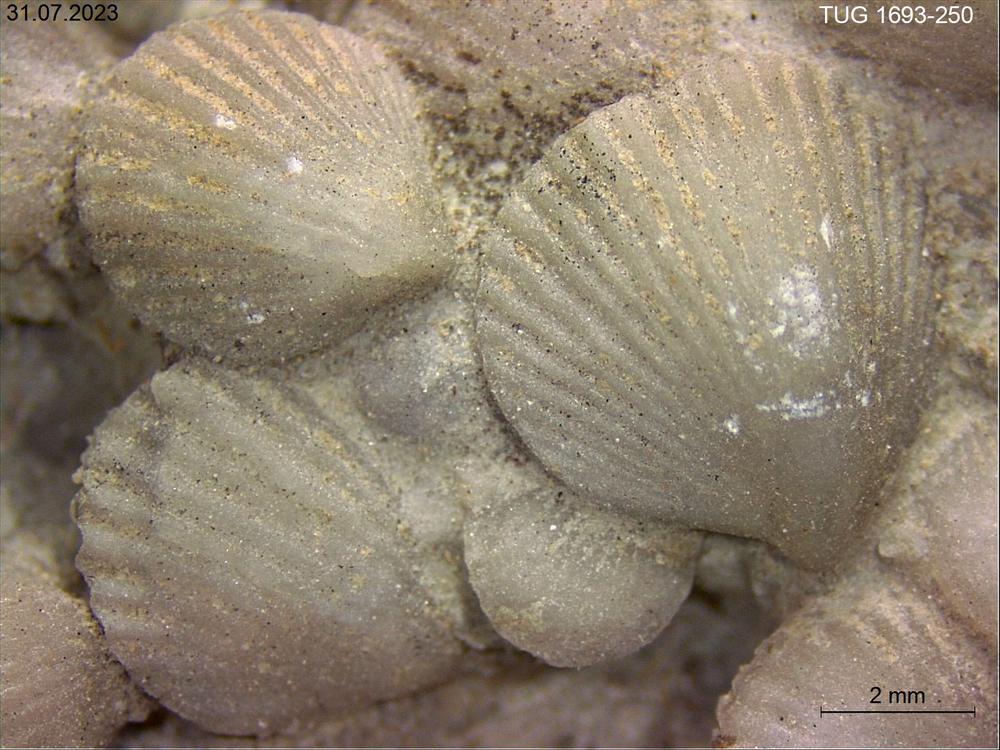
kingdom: Animalia
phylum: Brachiopoda
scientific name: Brachiopoda
